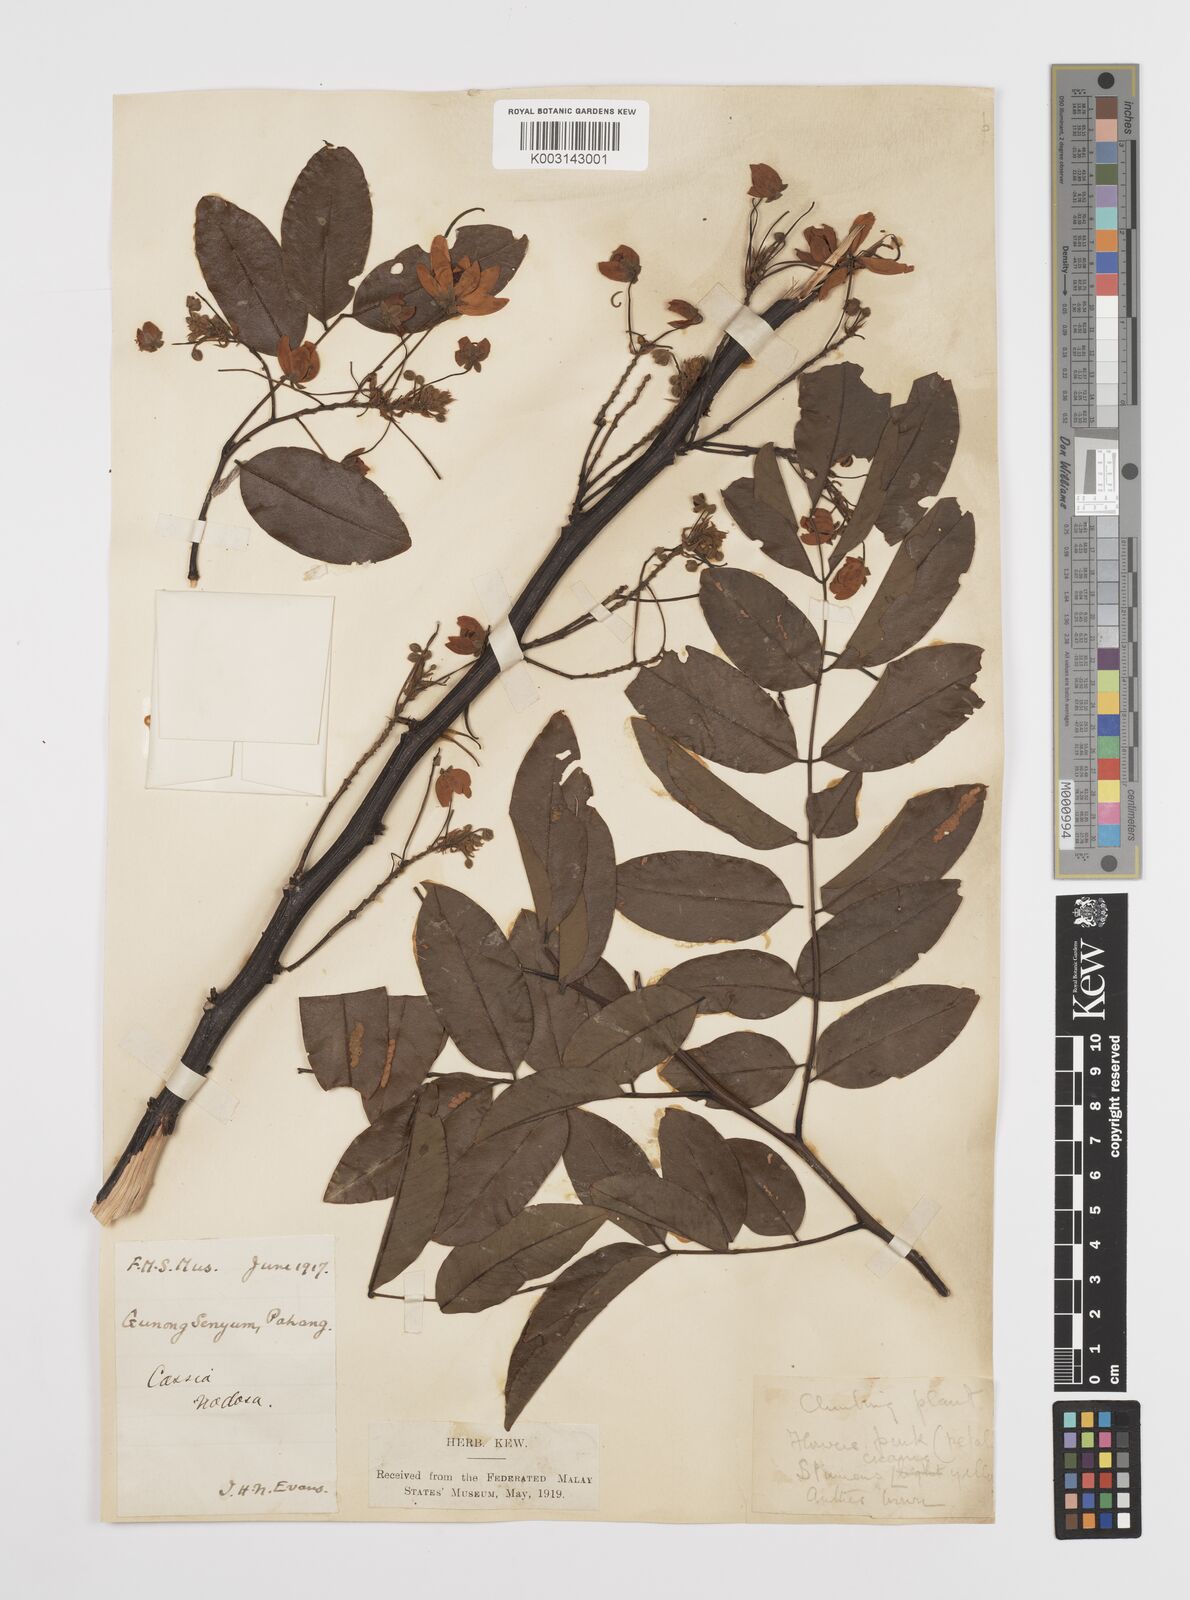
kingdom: Plantae
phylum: Tracheophyta
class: Magnoliopsida
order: Fabales
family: Fabaceae
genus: Cassia
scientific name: Cassia javanica
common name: Apple blossom
